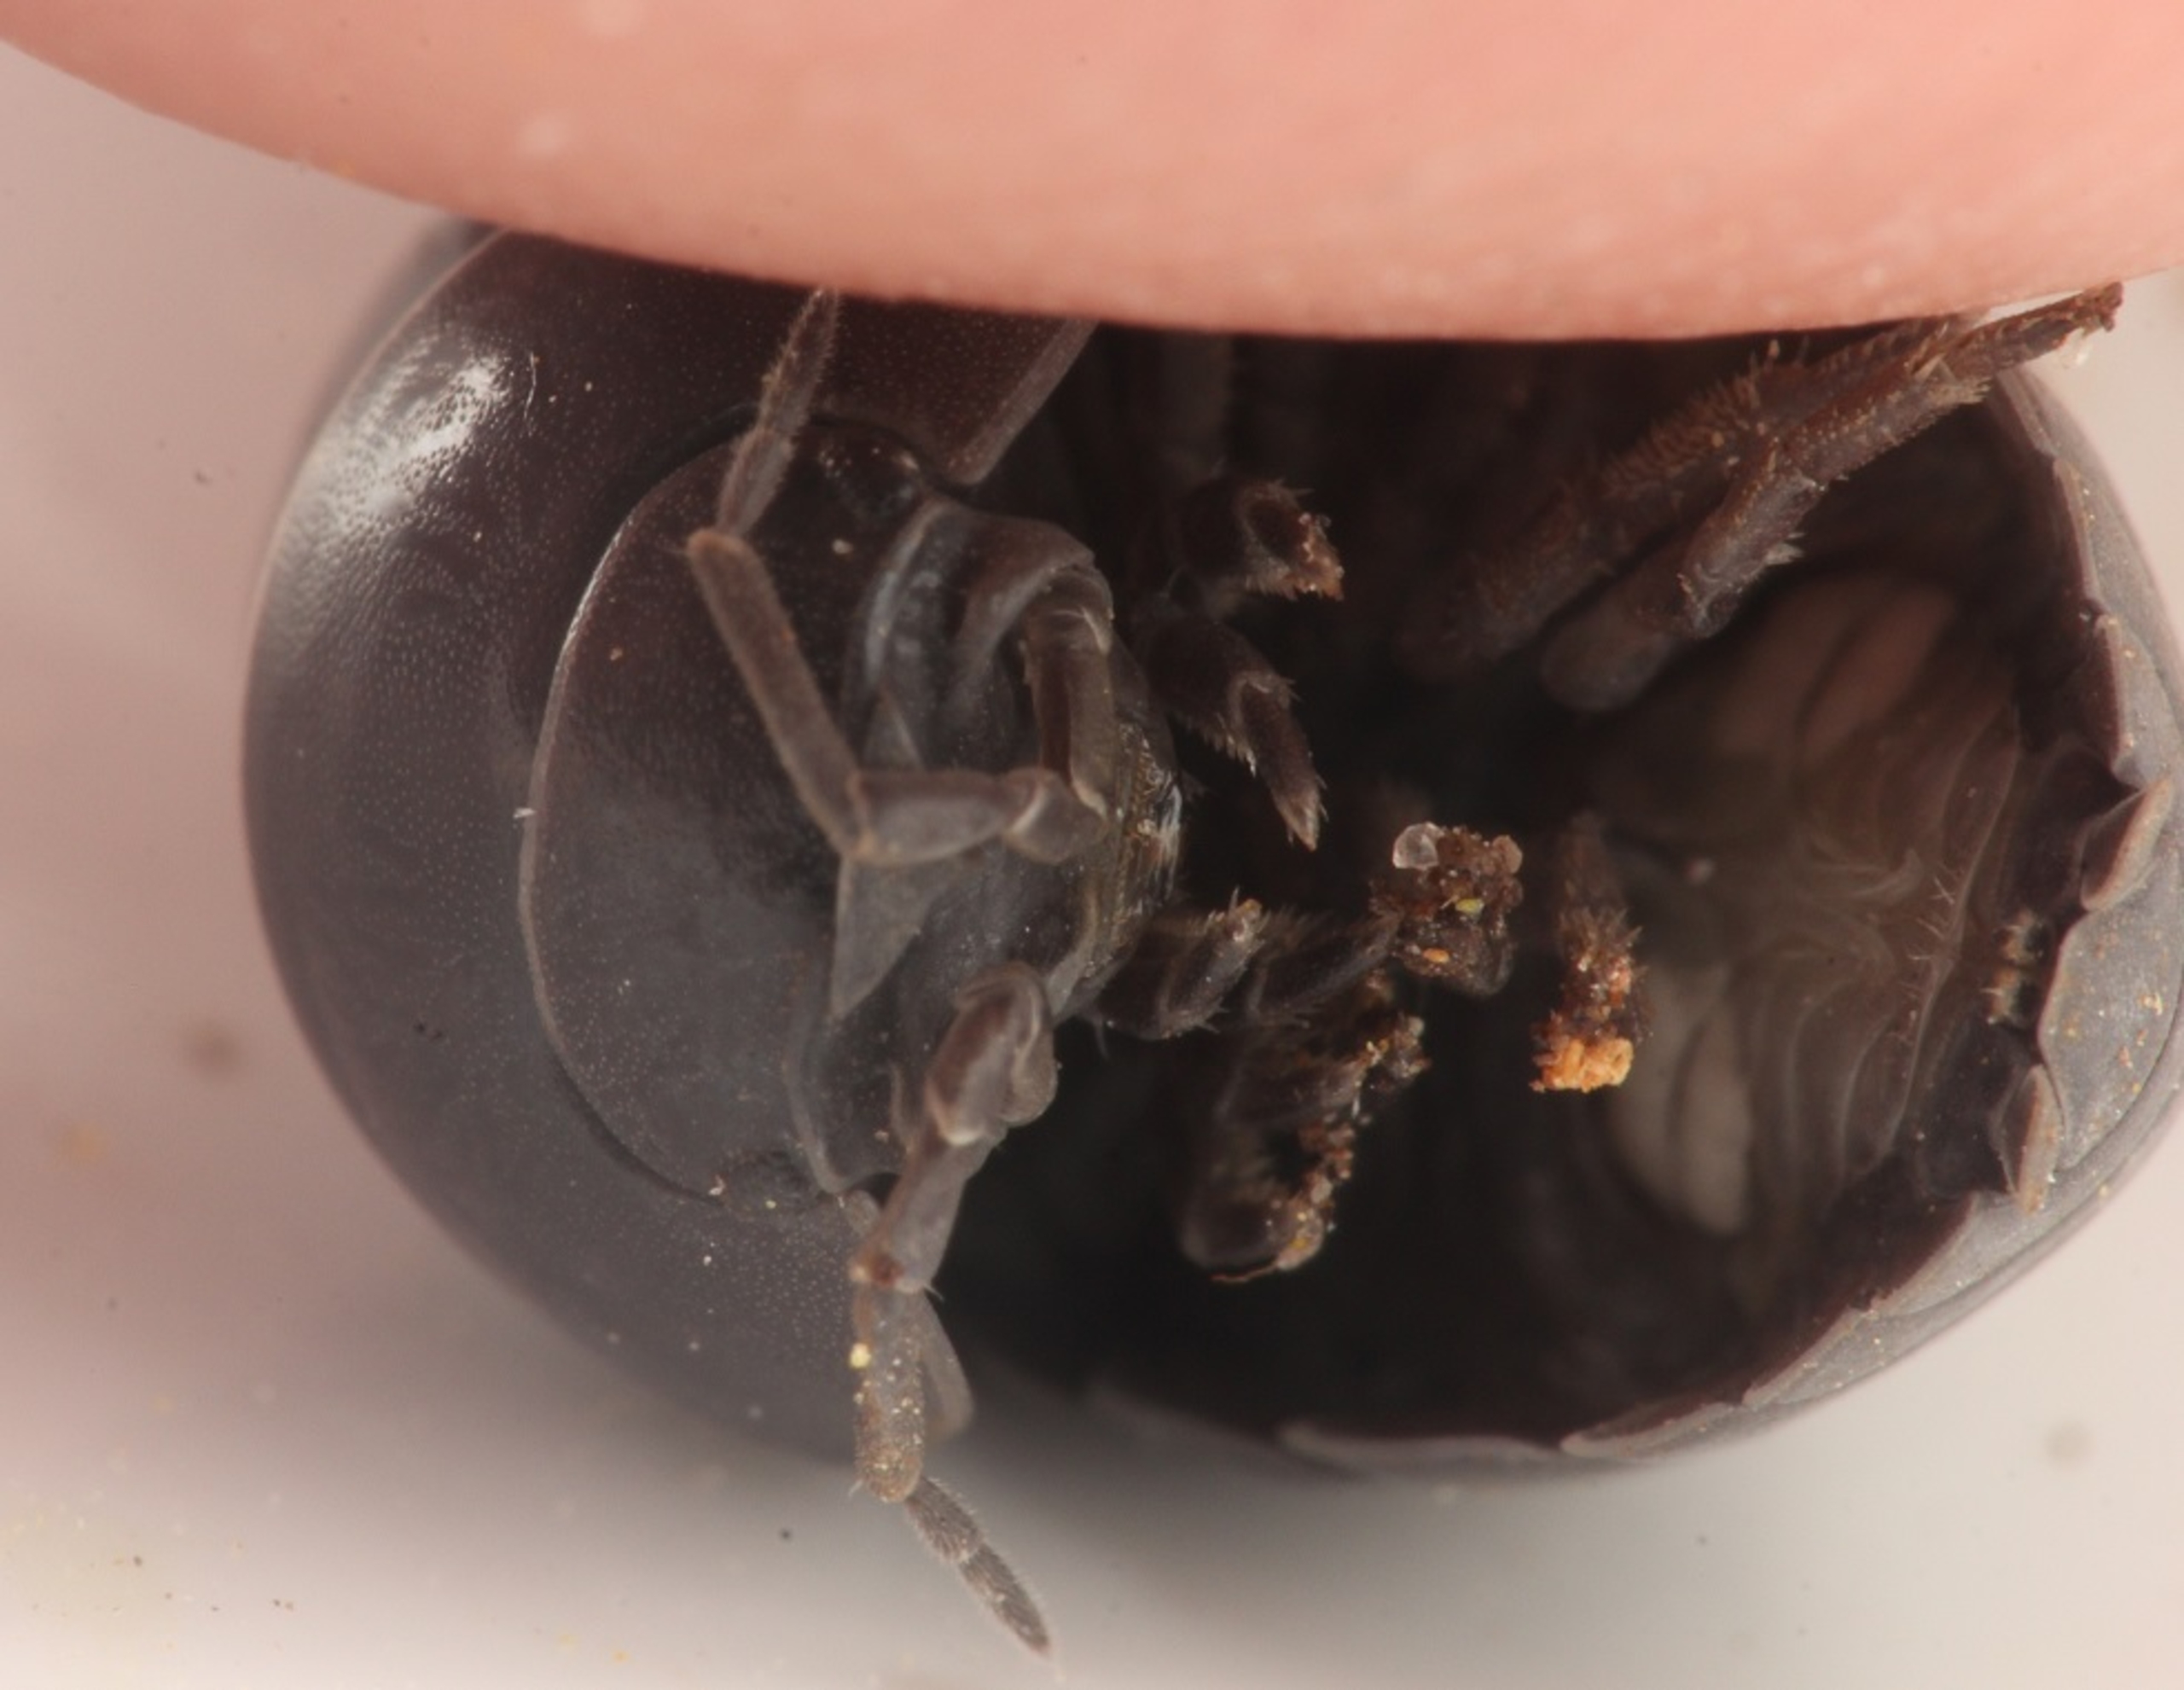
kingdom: Animalia
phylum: Arthropoda
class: Malacostraca
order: Isopoda
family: Armadillidiidae
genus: Armadillidium
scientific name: Armadillidium vulgare
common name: Almindelig kuglebænkebider
